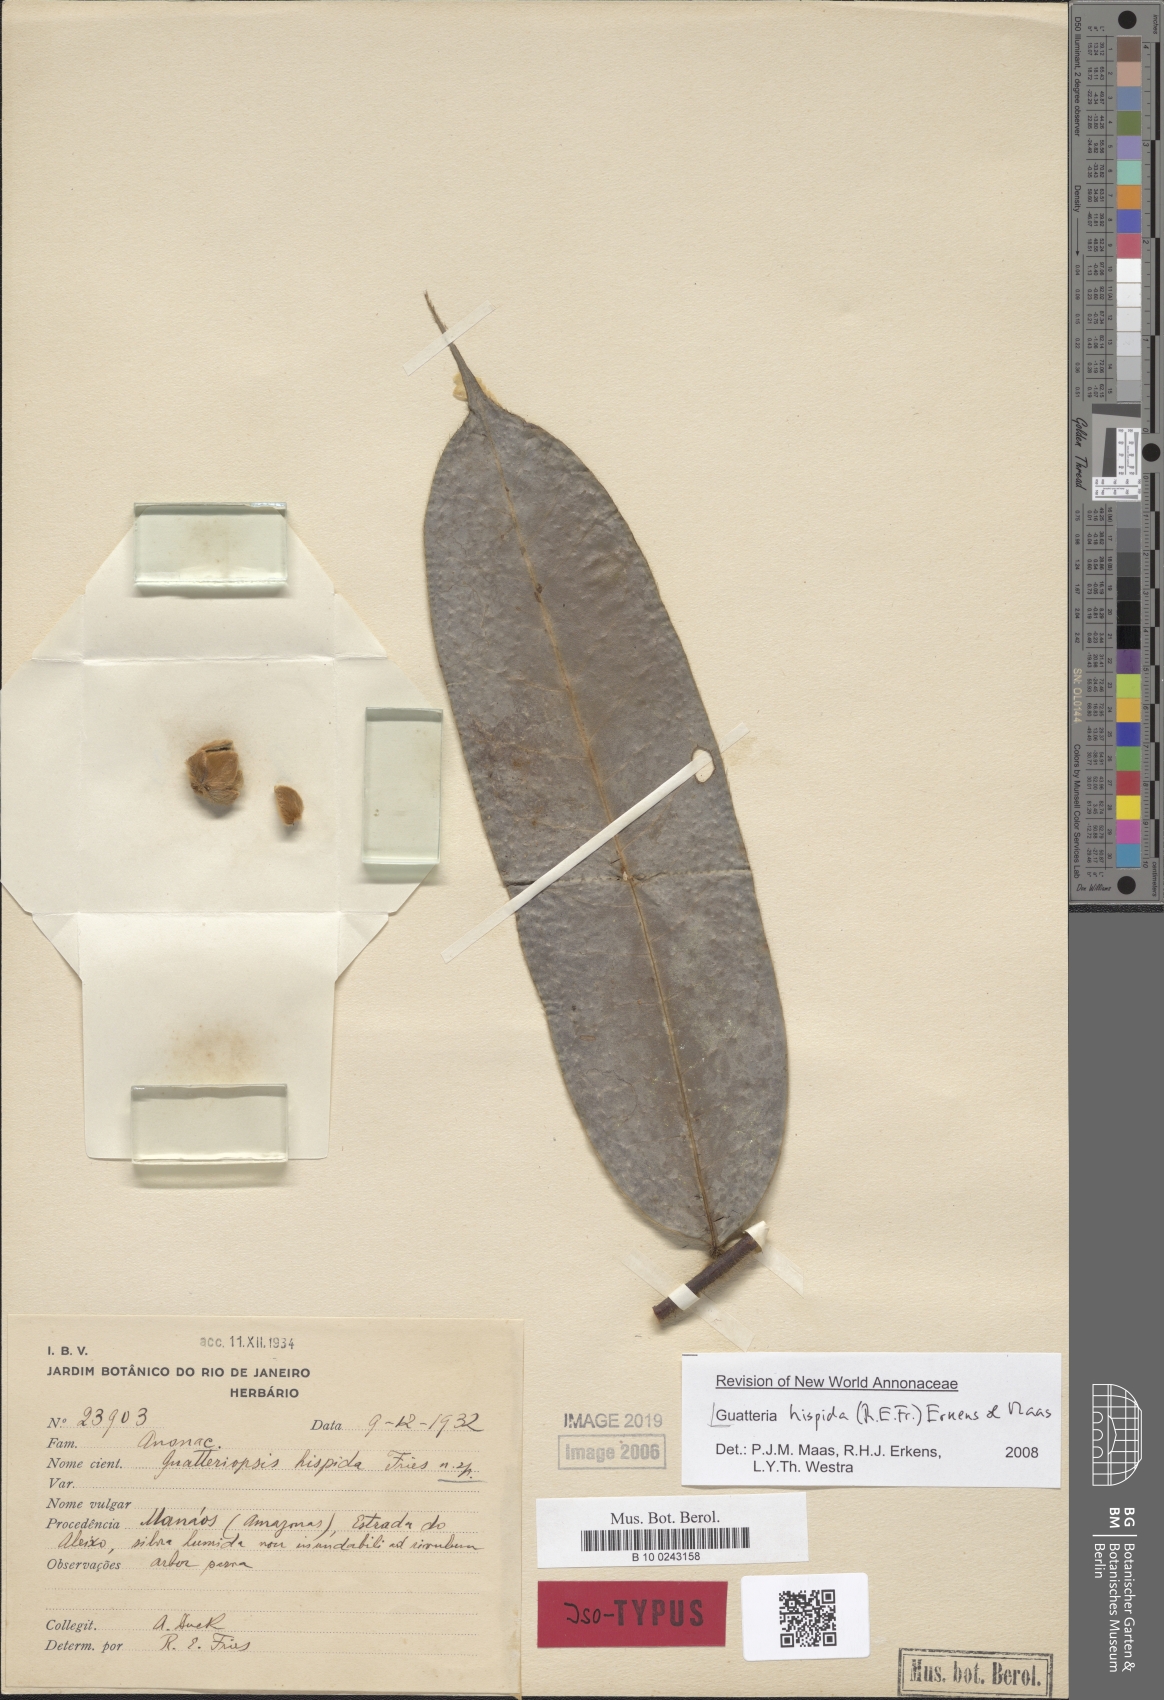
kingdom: Plantae
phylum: Tracheophyta
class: Magnoliopsida
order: Magnoliales
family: Annonaceae
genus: Guatteria
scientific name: Guatteria hispida
